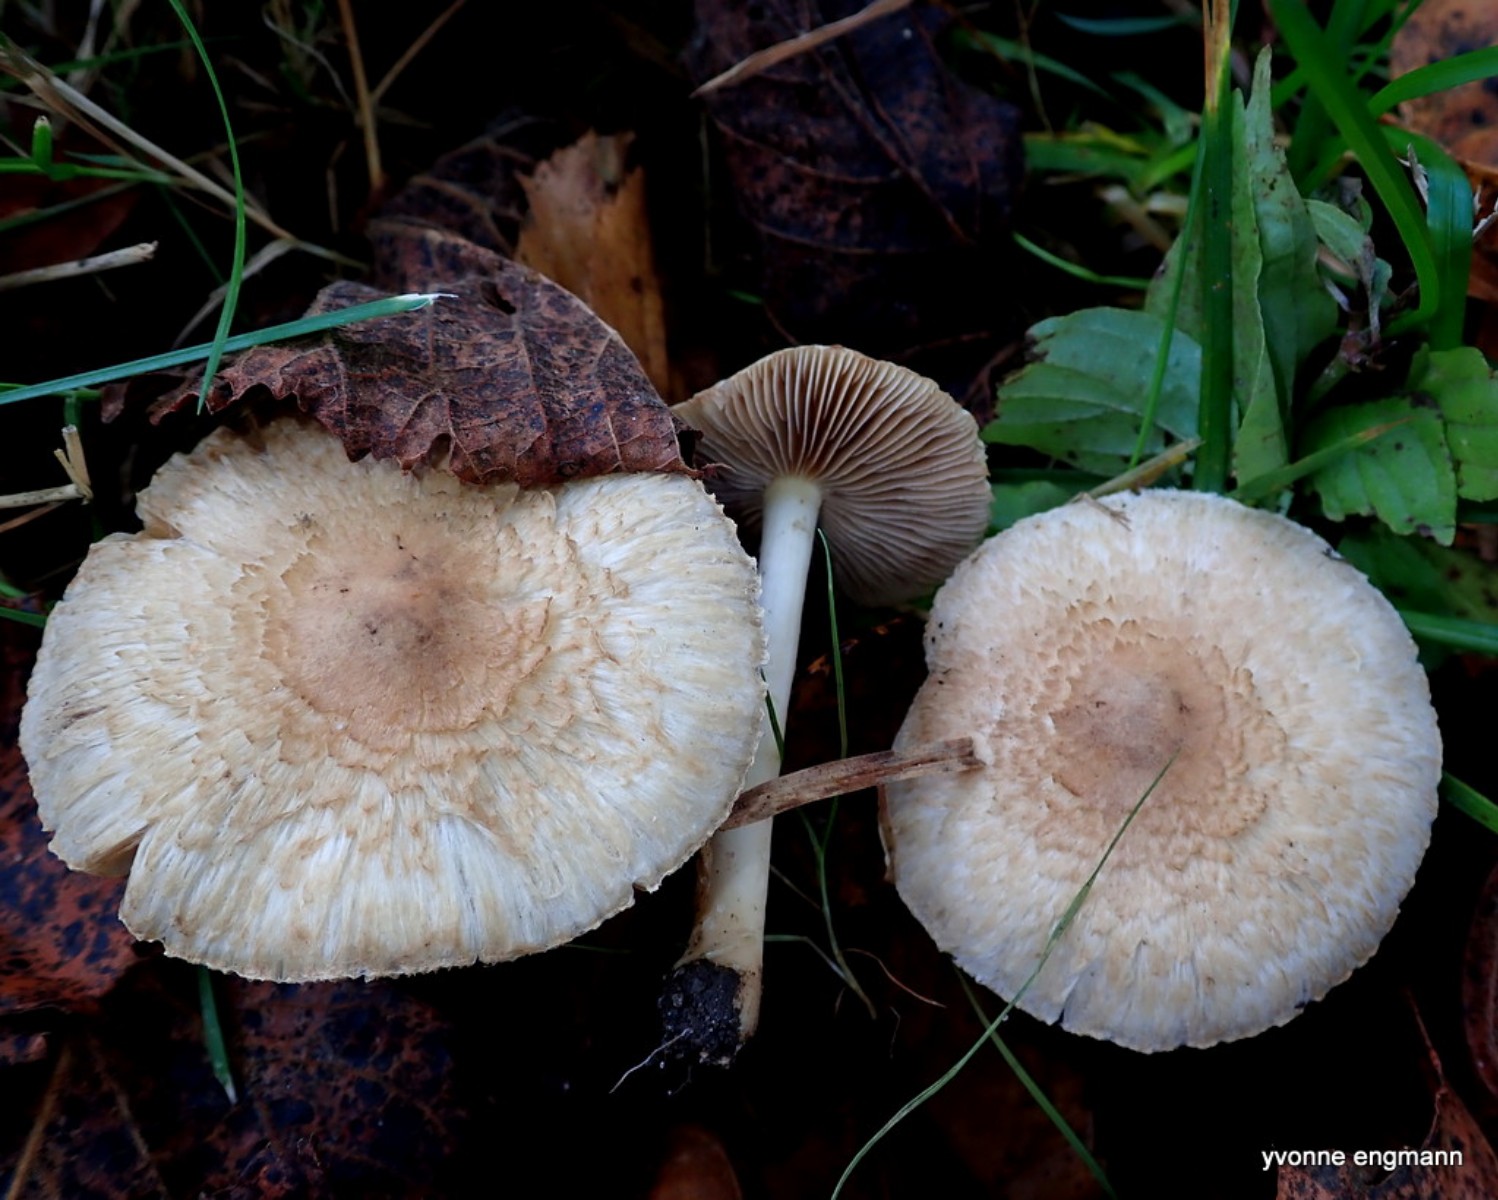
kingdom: Fungi
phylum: Basidiomycota
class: Agaricomycetes
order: Agaricales
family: Inocybaceae
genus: Inocybe
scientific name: Inocybe sindonia
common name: bleg trævlhat
